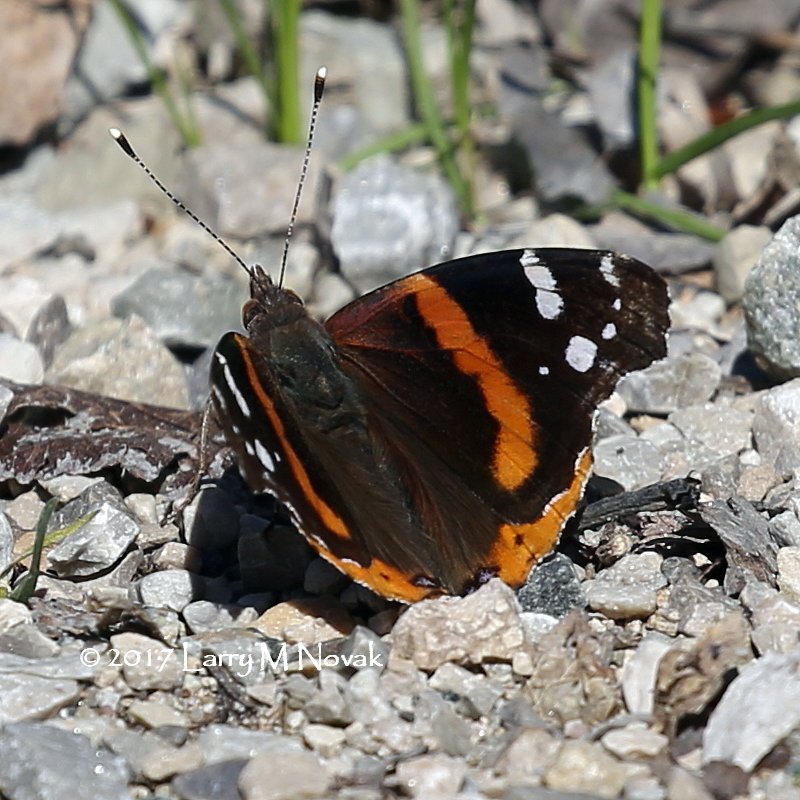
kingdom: Animalia
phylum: Arthropoda
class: Insecta
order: Lepidoptera
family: Nymphalidae
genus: Vanessa
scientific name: Vanessa atalanta
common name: Red Admiral
